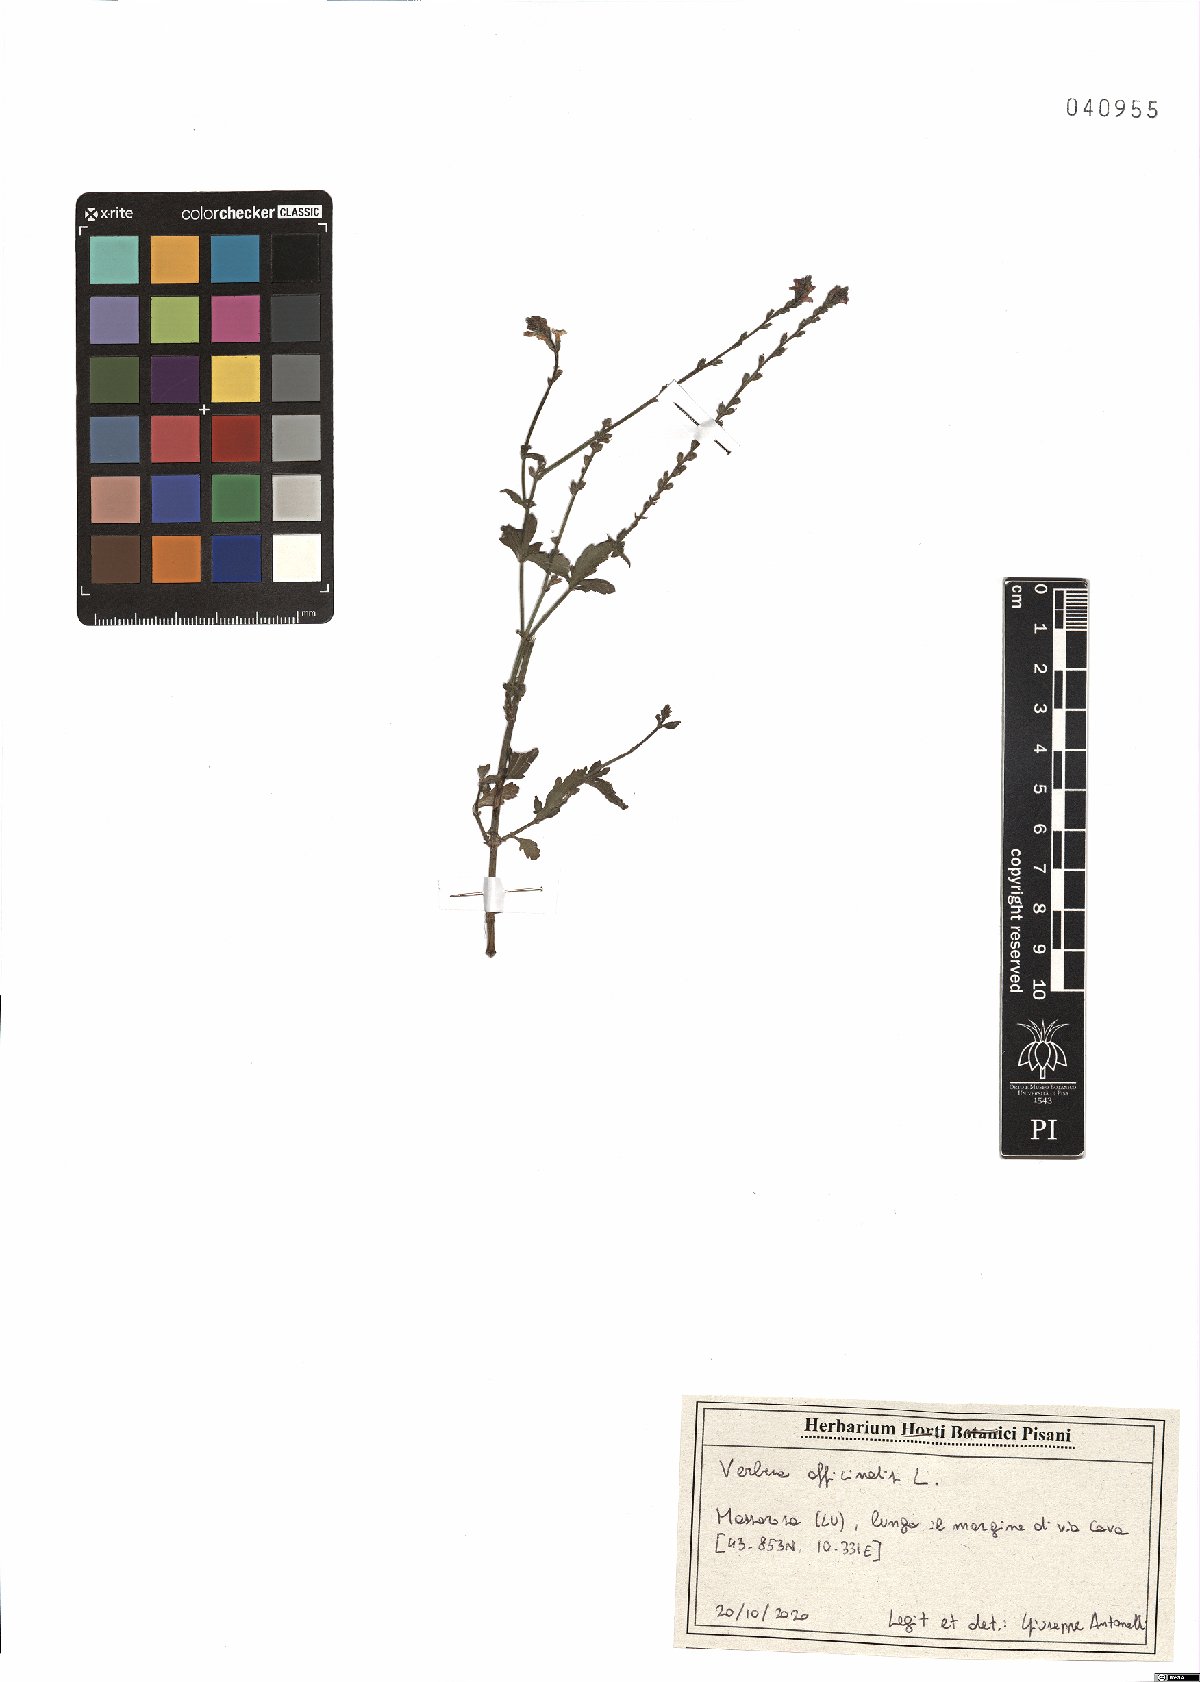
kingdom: Plantae
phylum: Tracheophyta
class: Magnoliopsida
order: Lamiales
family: Verbenaceae
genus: Verbena
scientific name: Verbena officinalis
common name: Vervain
